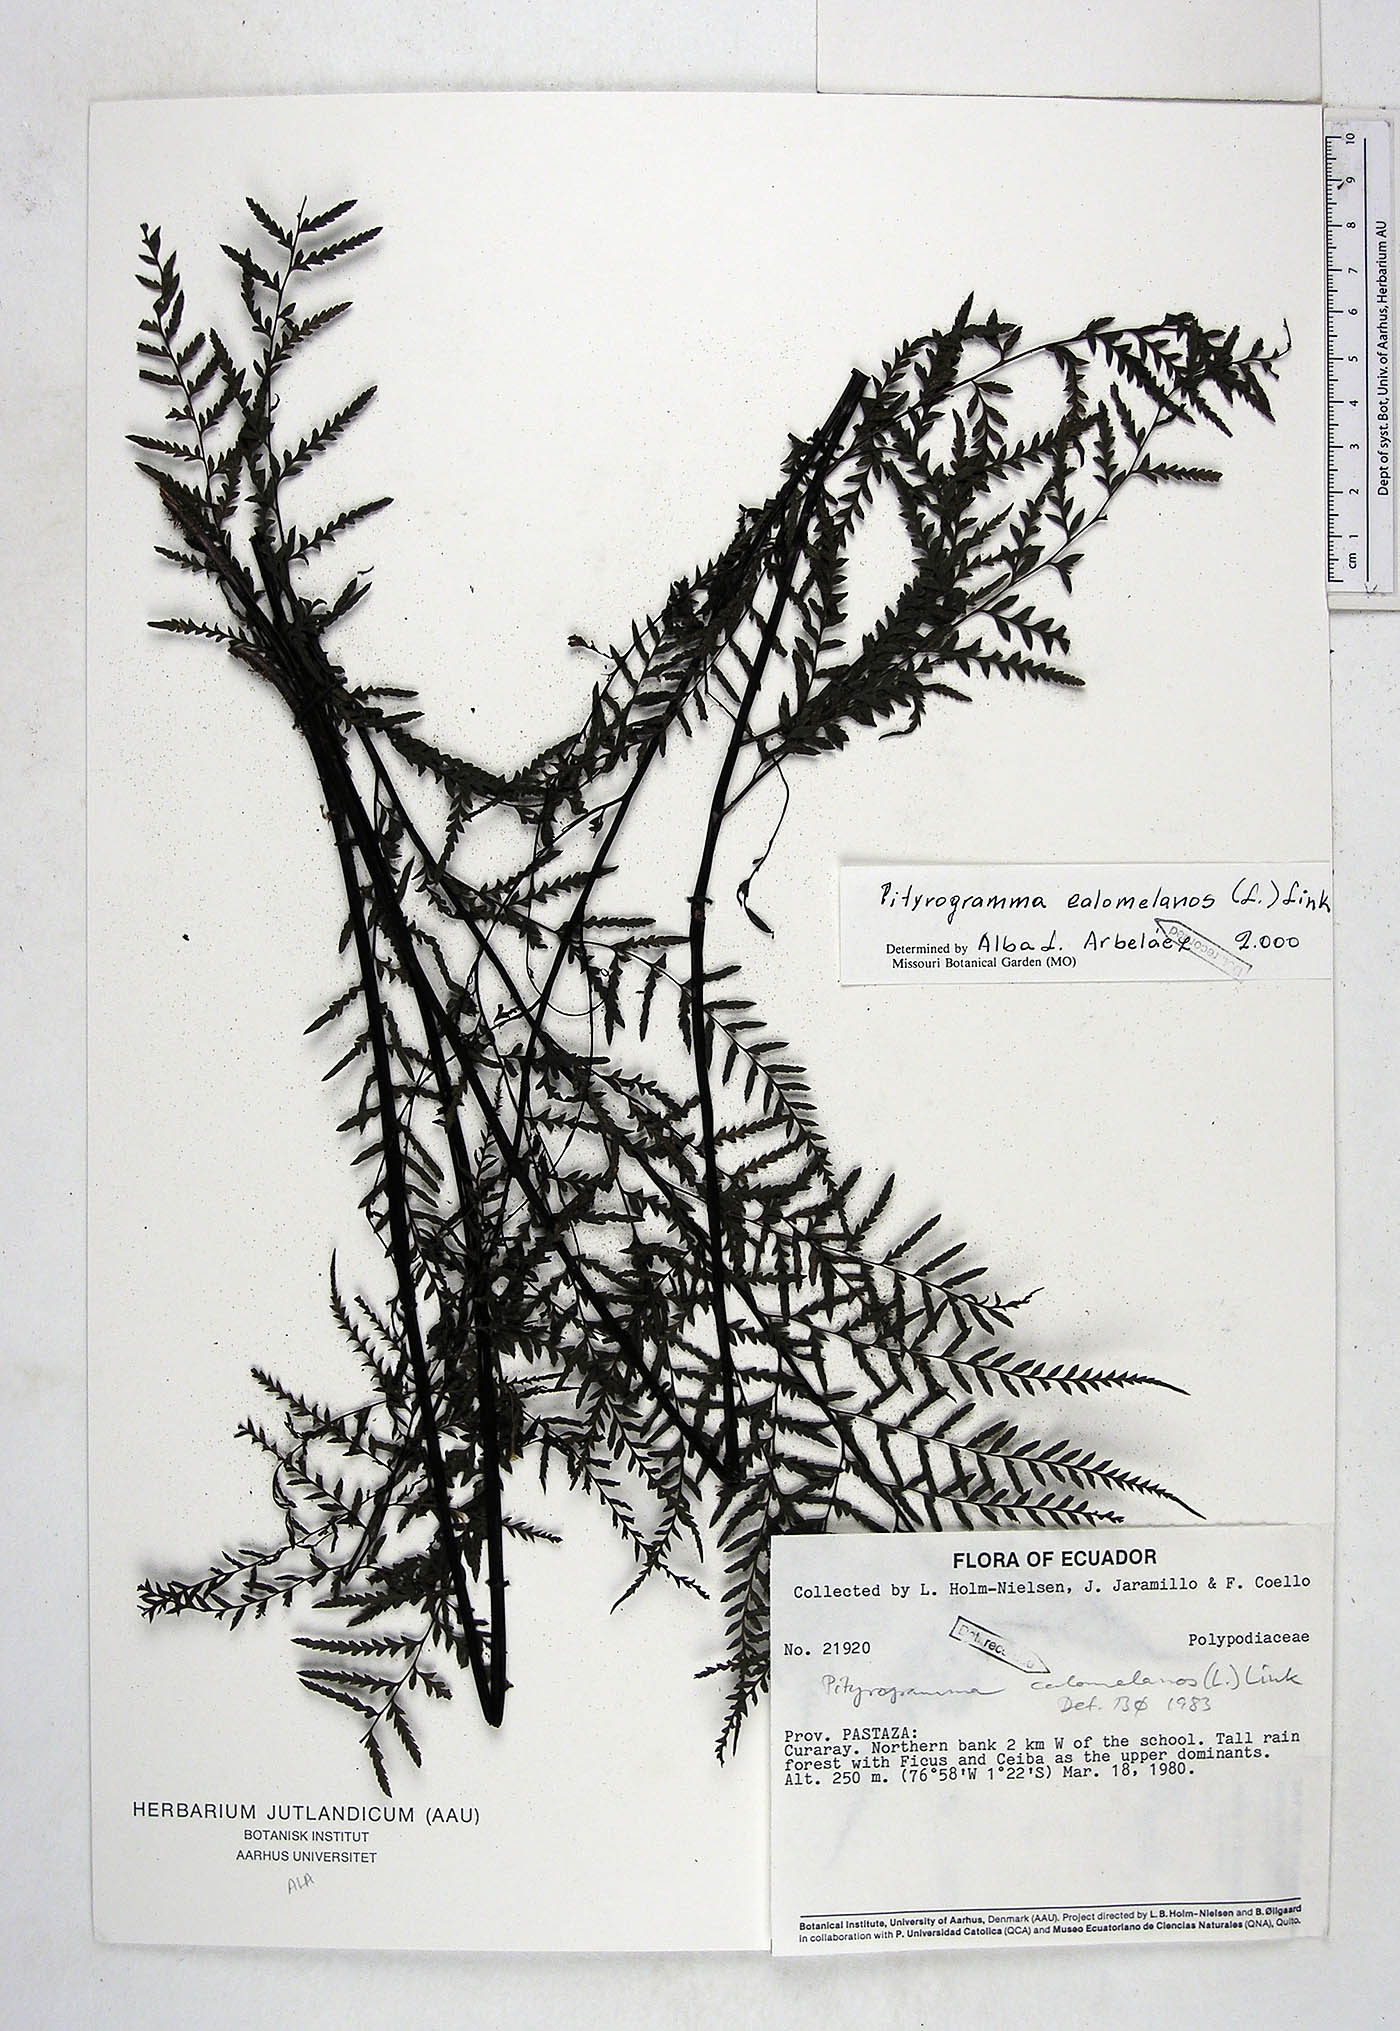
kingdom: Plantae
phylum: Tracheophyta
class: Polypodiopsida
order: Polypodiales
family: Pteridaceae
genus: Pityrogramma
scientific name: Pityrogramma calomelanos
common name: Dixie silverback fern
